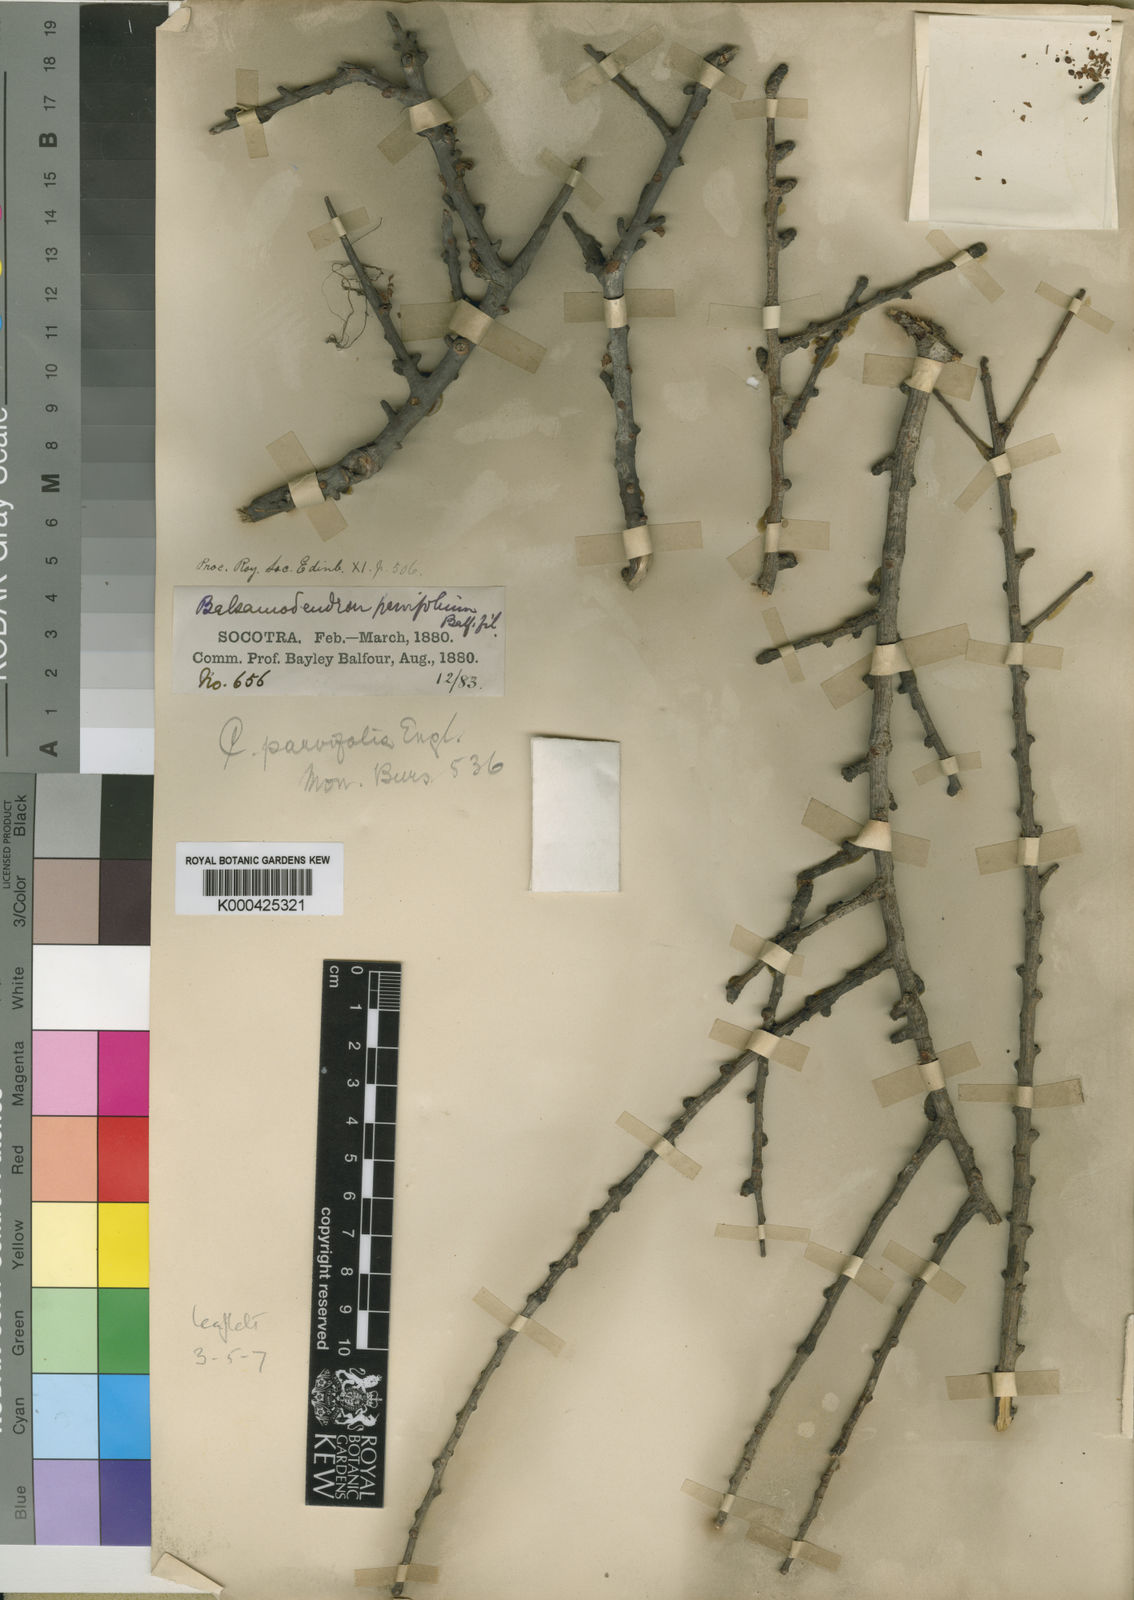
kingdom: Plantae
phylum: Tracheophyta
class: Magnoliopsida
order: Sapindales
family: Burseraceae
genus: Commiphora
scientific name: Commiphora parvifolia
